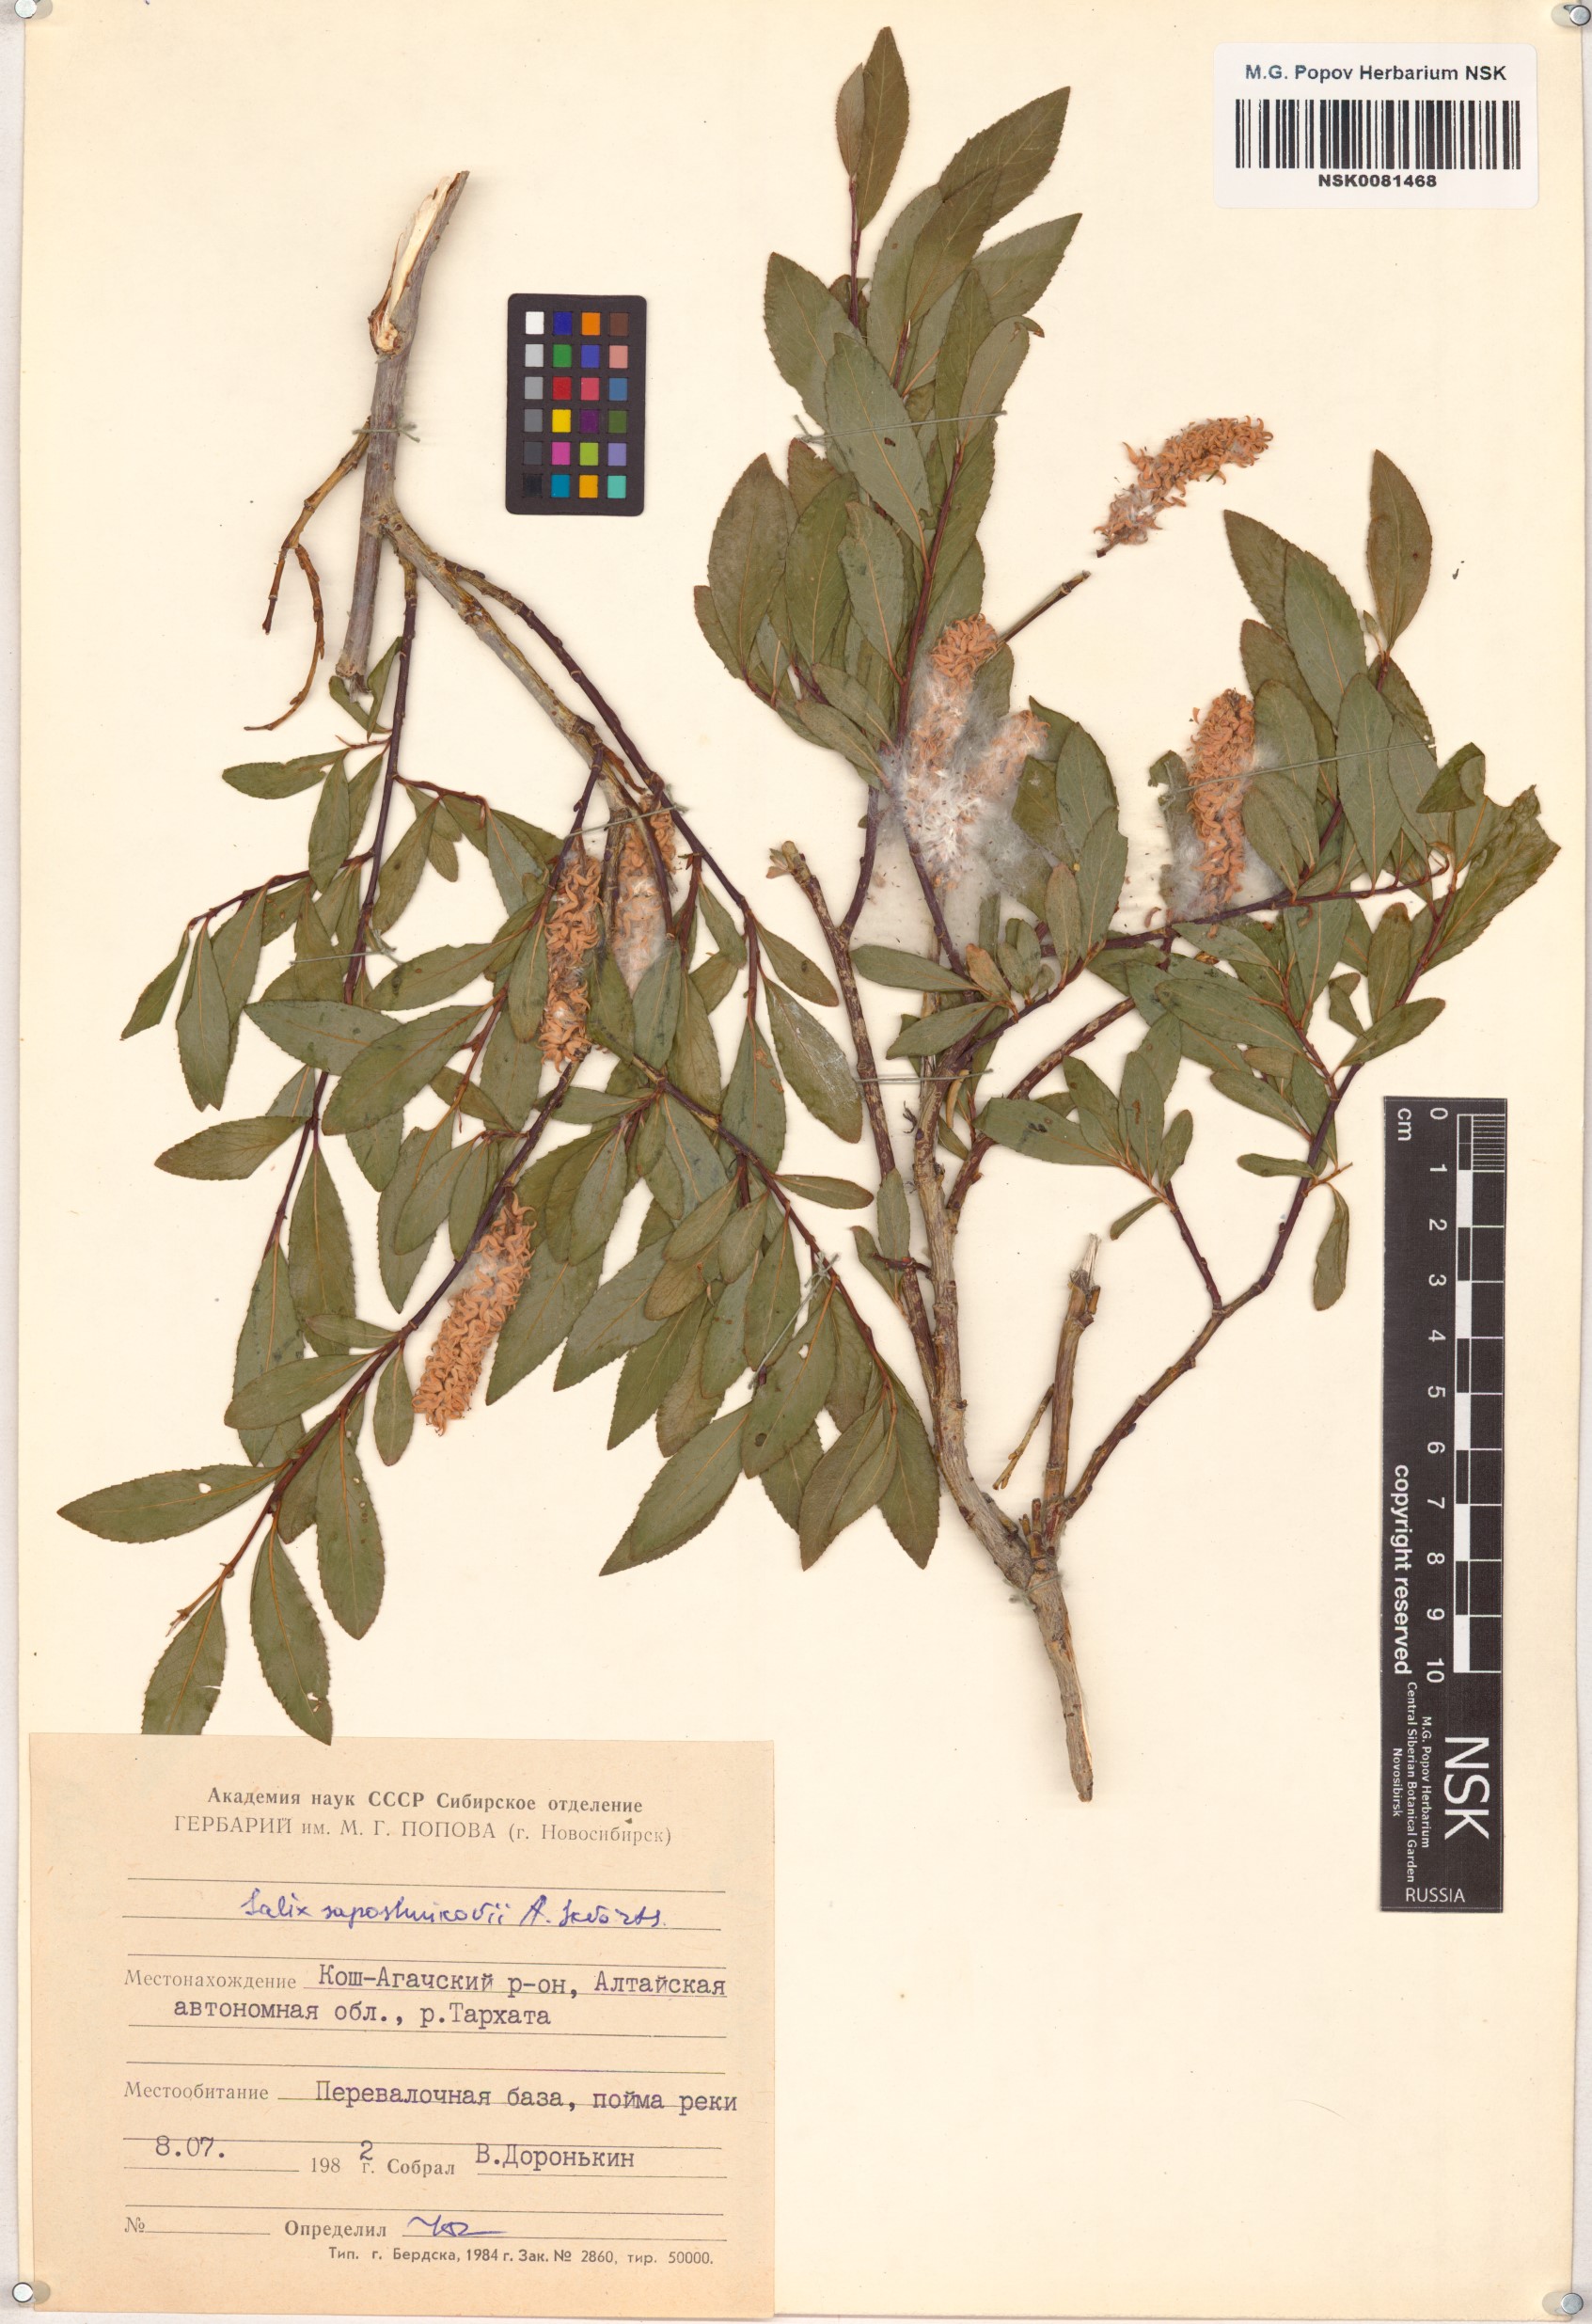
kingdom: Plantae
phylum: Tracheophyta
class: Magnoliopsida
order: Malpighiales
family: Salicaceae
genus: Salix
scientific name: Salix saposhnikovii
